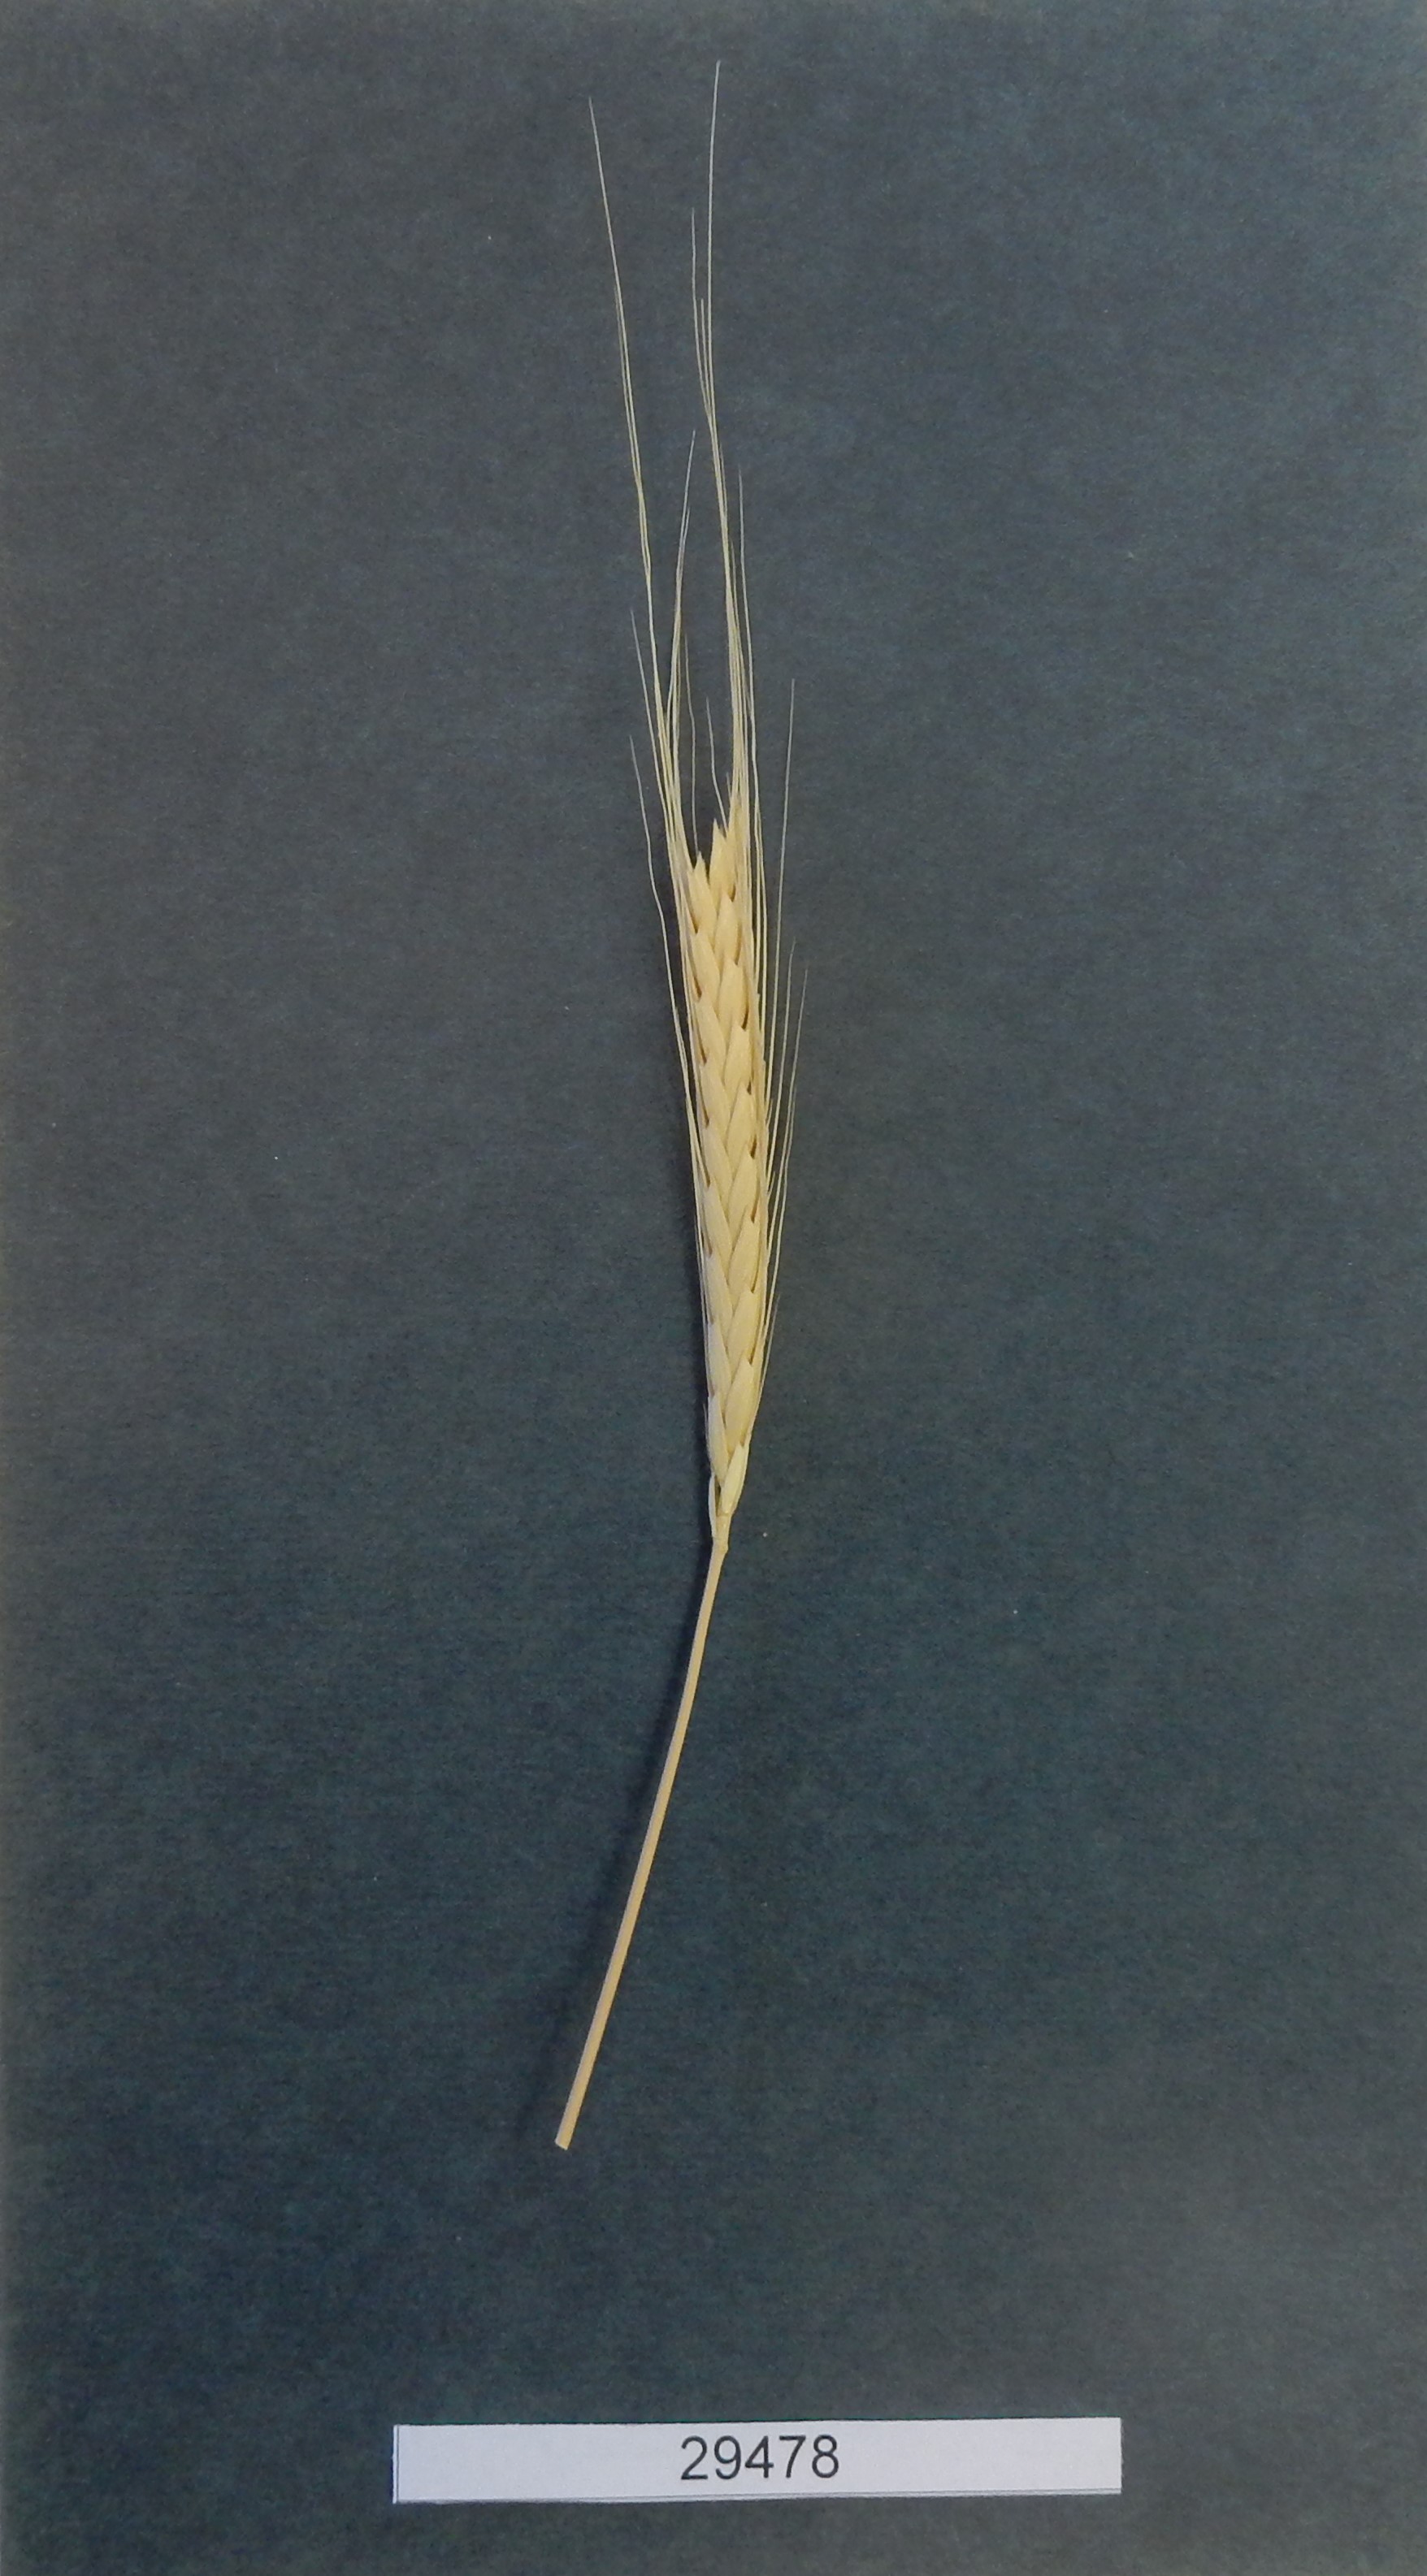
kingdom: Plantae
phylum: Tracheophyta
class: Liliopsida
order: Poales
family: Poaceae
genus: Triticum
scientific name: Triticum urartu
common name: Red wild einkorn
